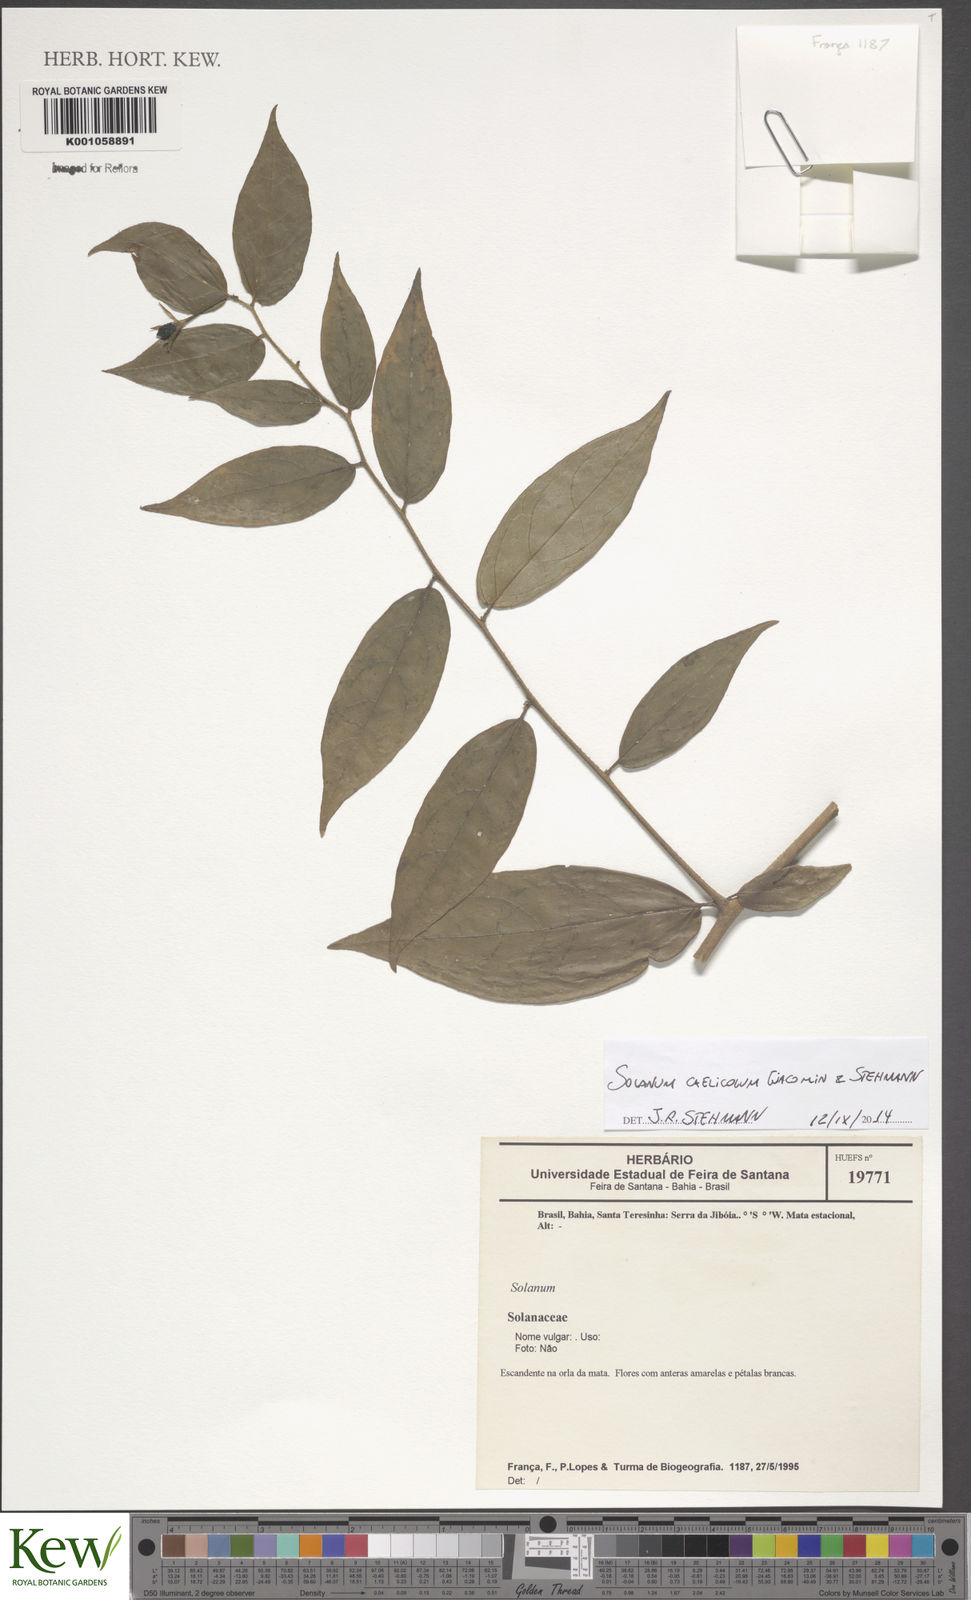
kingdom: Plantae
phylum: Tracheophyta
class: Magnoliopsida
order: Solanales
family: Solanaceae
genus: Solanum
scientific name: Solanum
